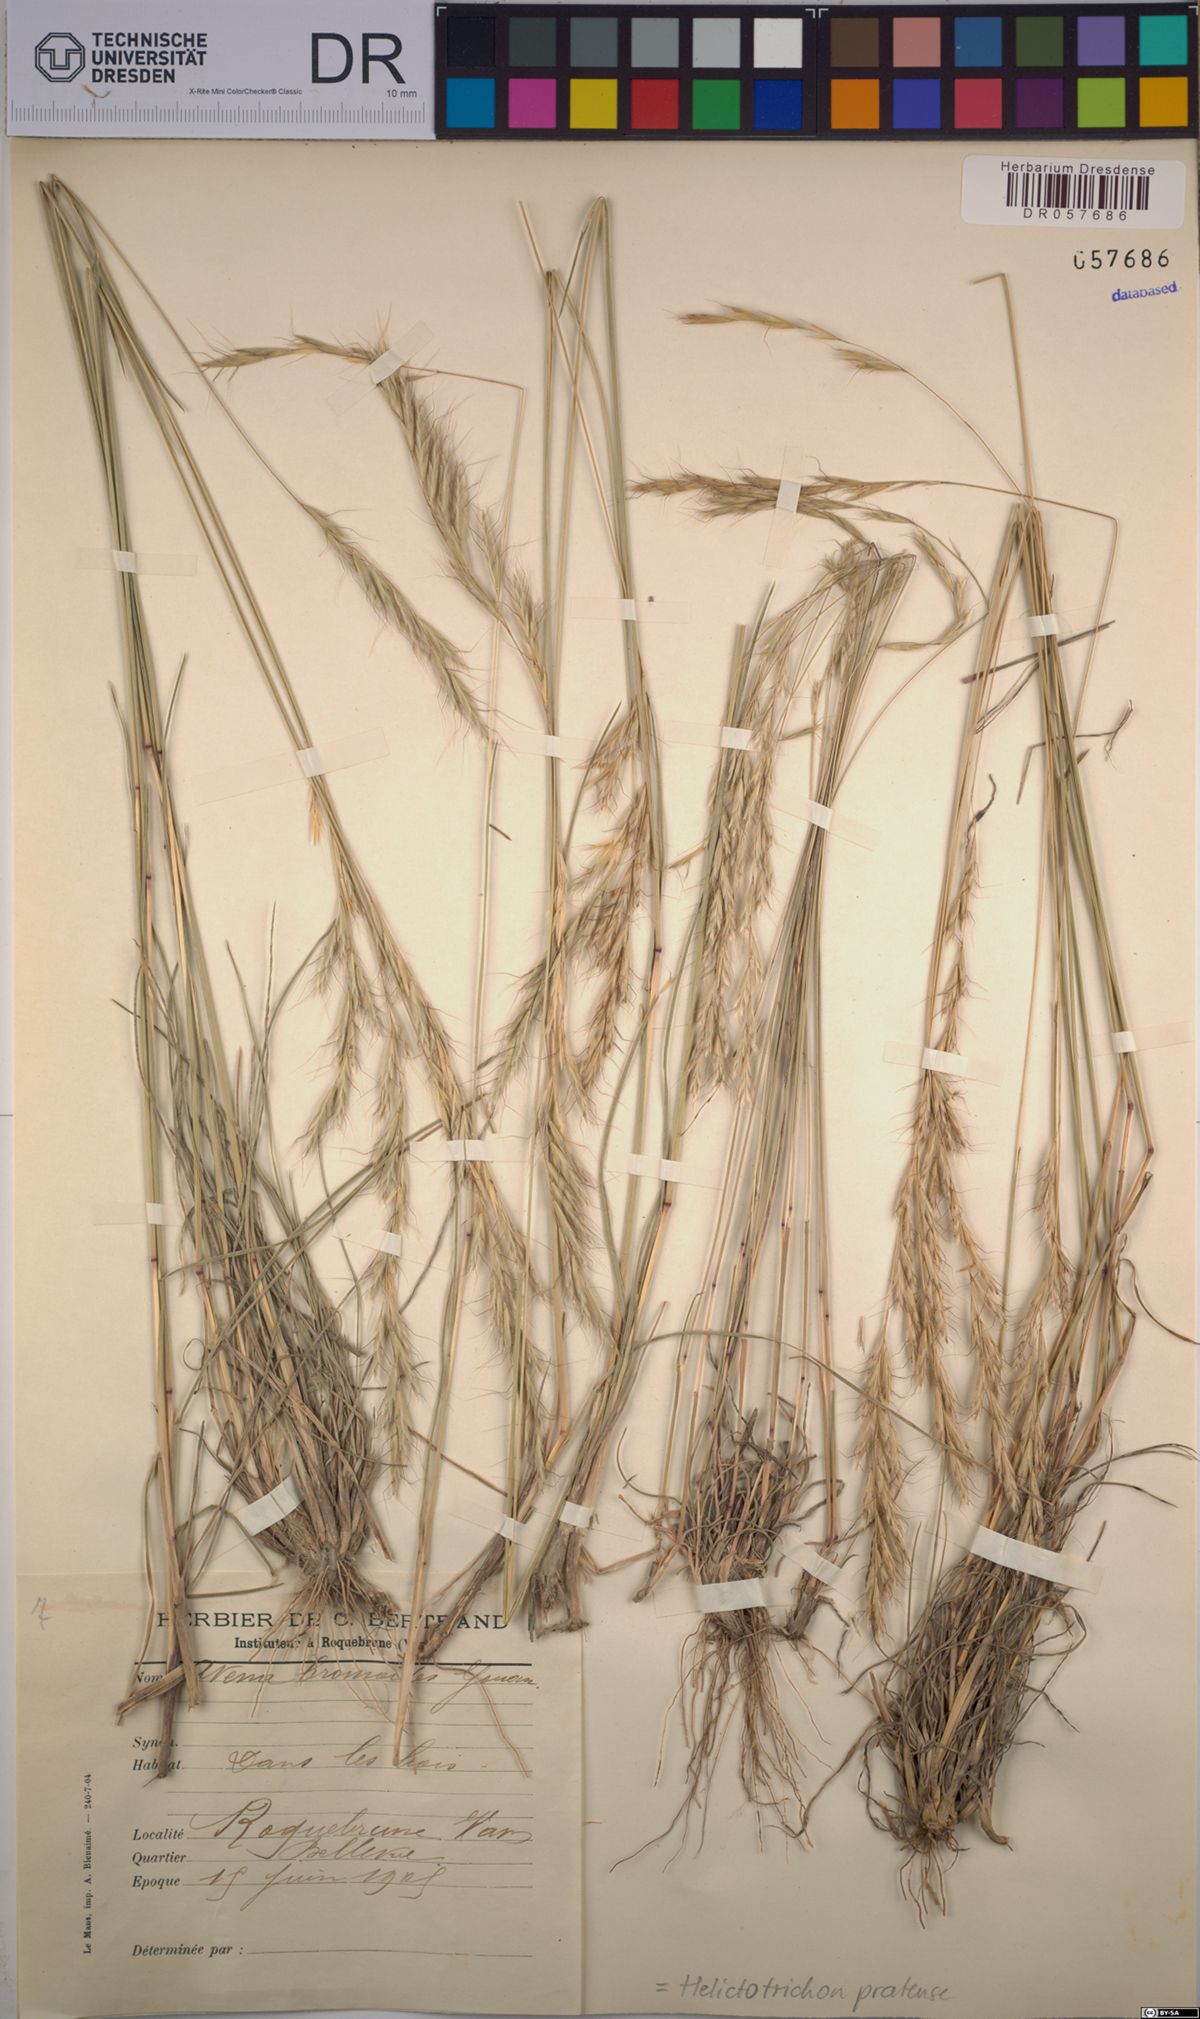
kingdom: Plantae
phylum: Tracheophyta
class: Liliopsida
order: Poales
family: Poaceae
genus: Helictochloa
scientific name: Helictochloa pratensis
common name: Meadow oat grass
